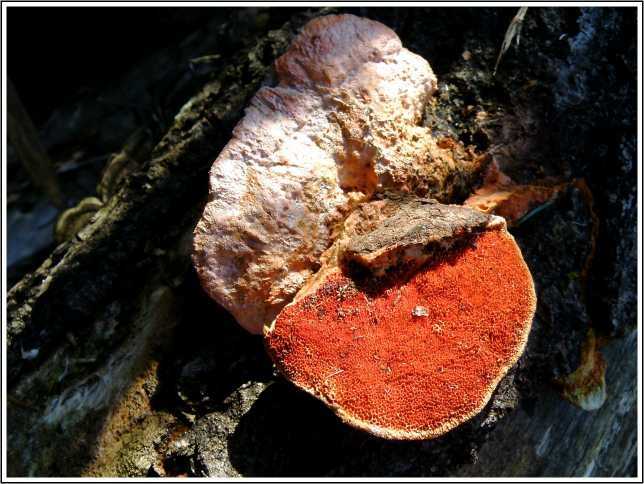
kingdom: Fungi
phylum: Basidiomycota
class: Agaricomycetes
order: Polyporales
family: Polyporaceae
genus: Trametes
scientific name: Trametes cinnabarina
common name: cinnoberporesvamp
